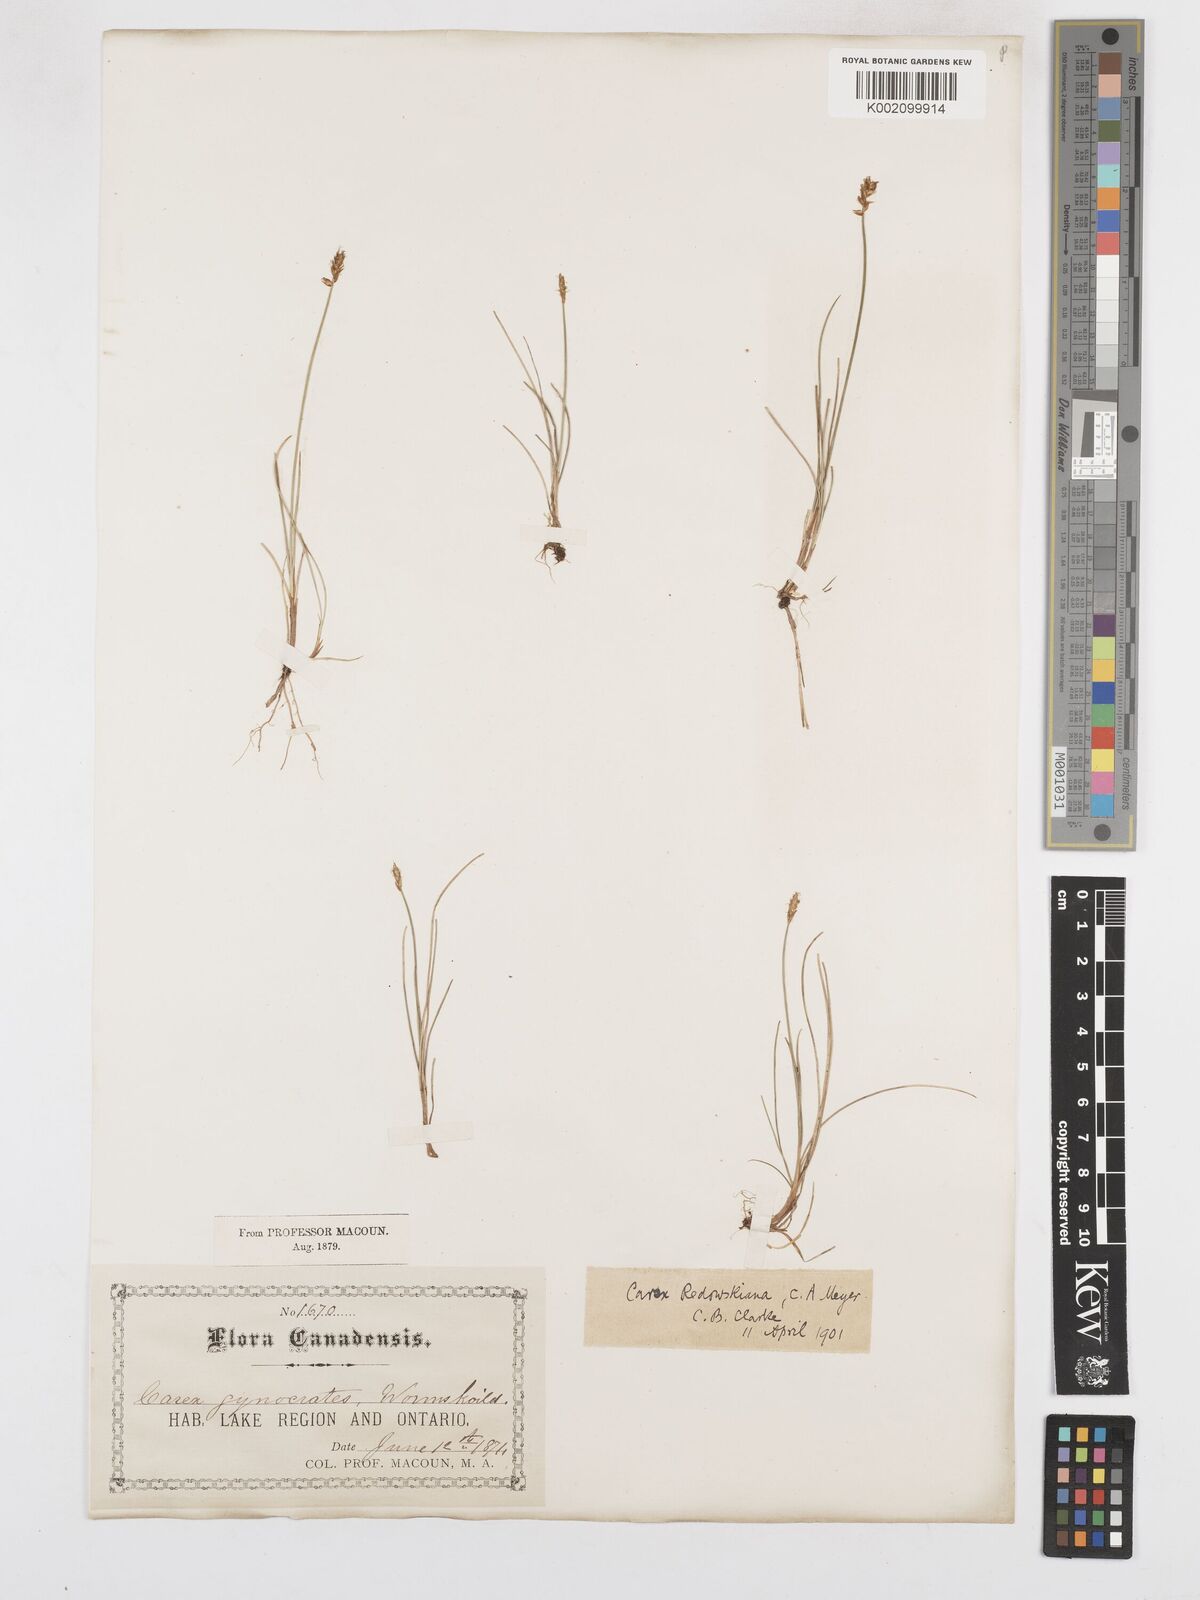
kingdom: Plantae
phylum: Tracheophyta
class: Liliopsida
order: Poales
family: Cyperaceae
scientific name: Cyperaceae
